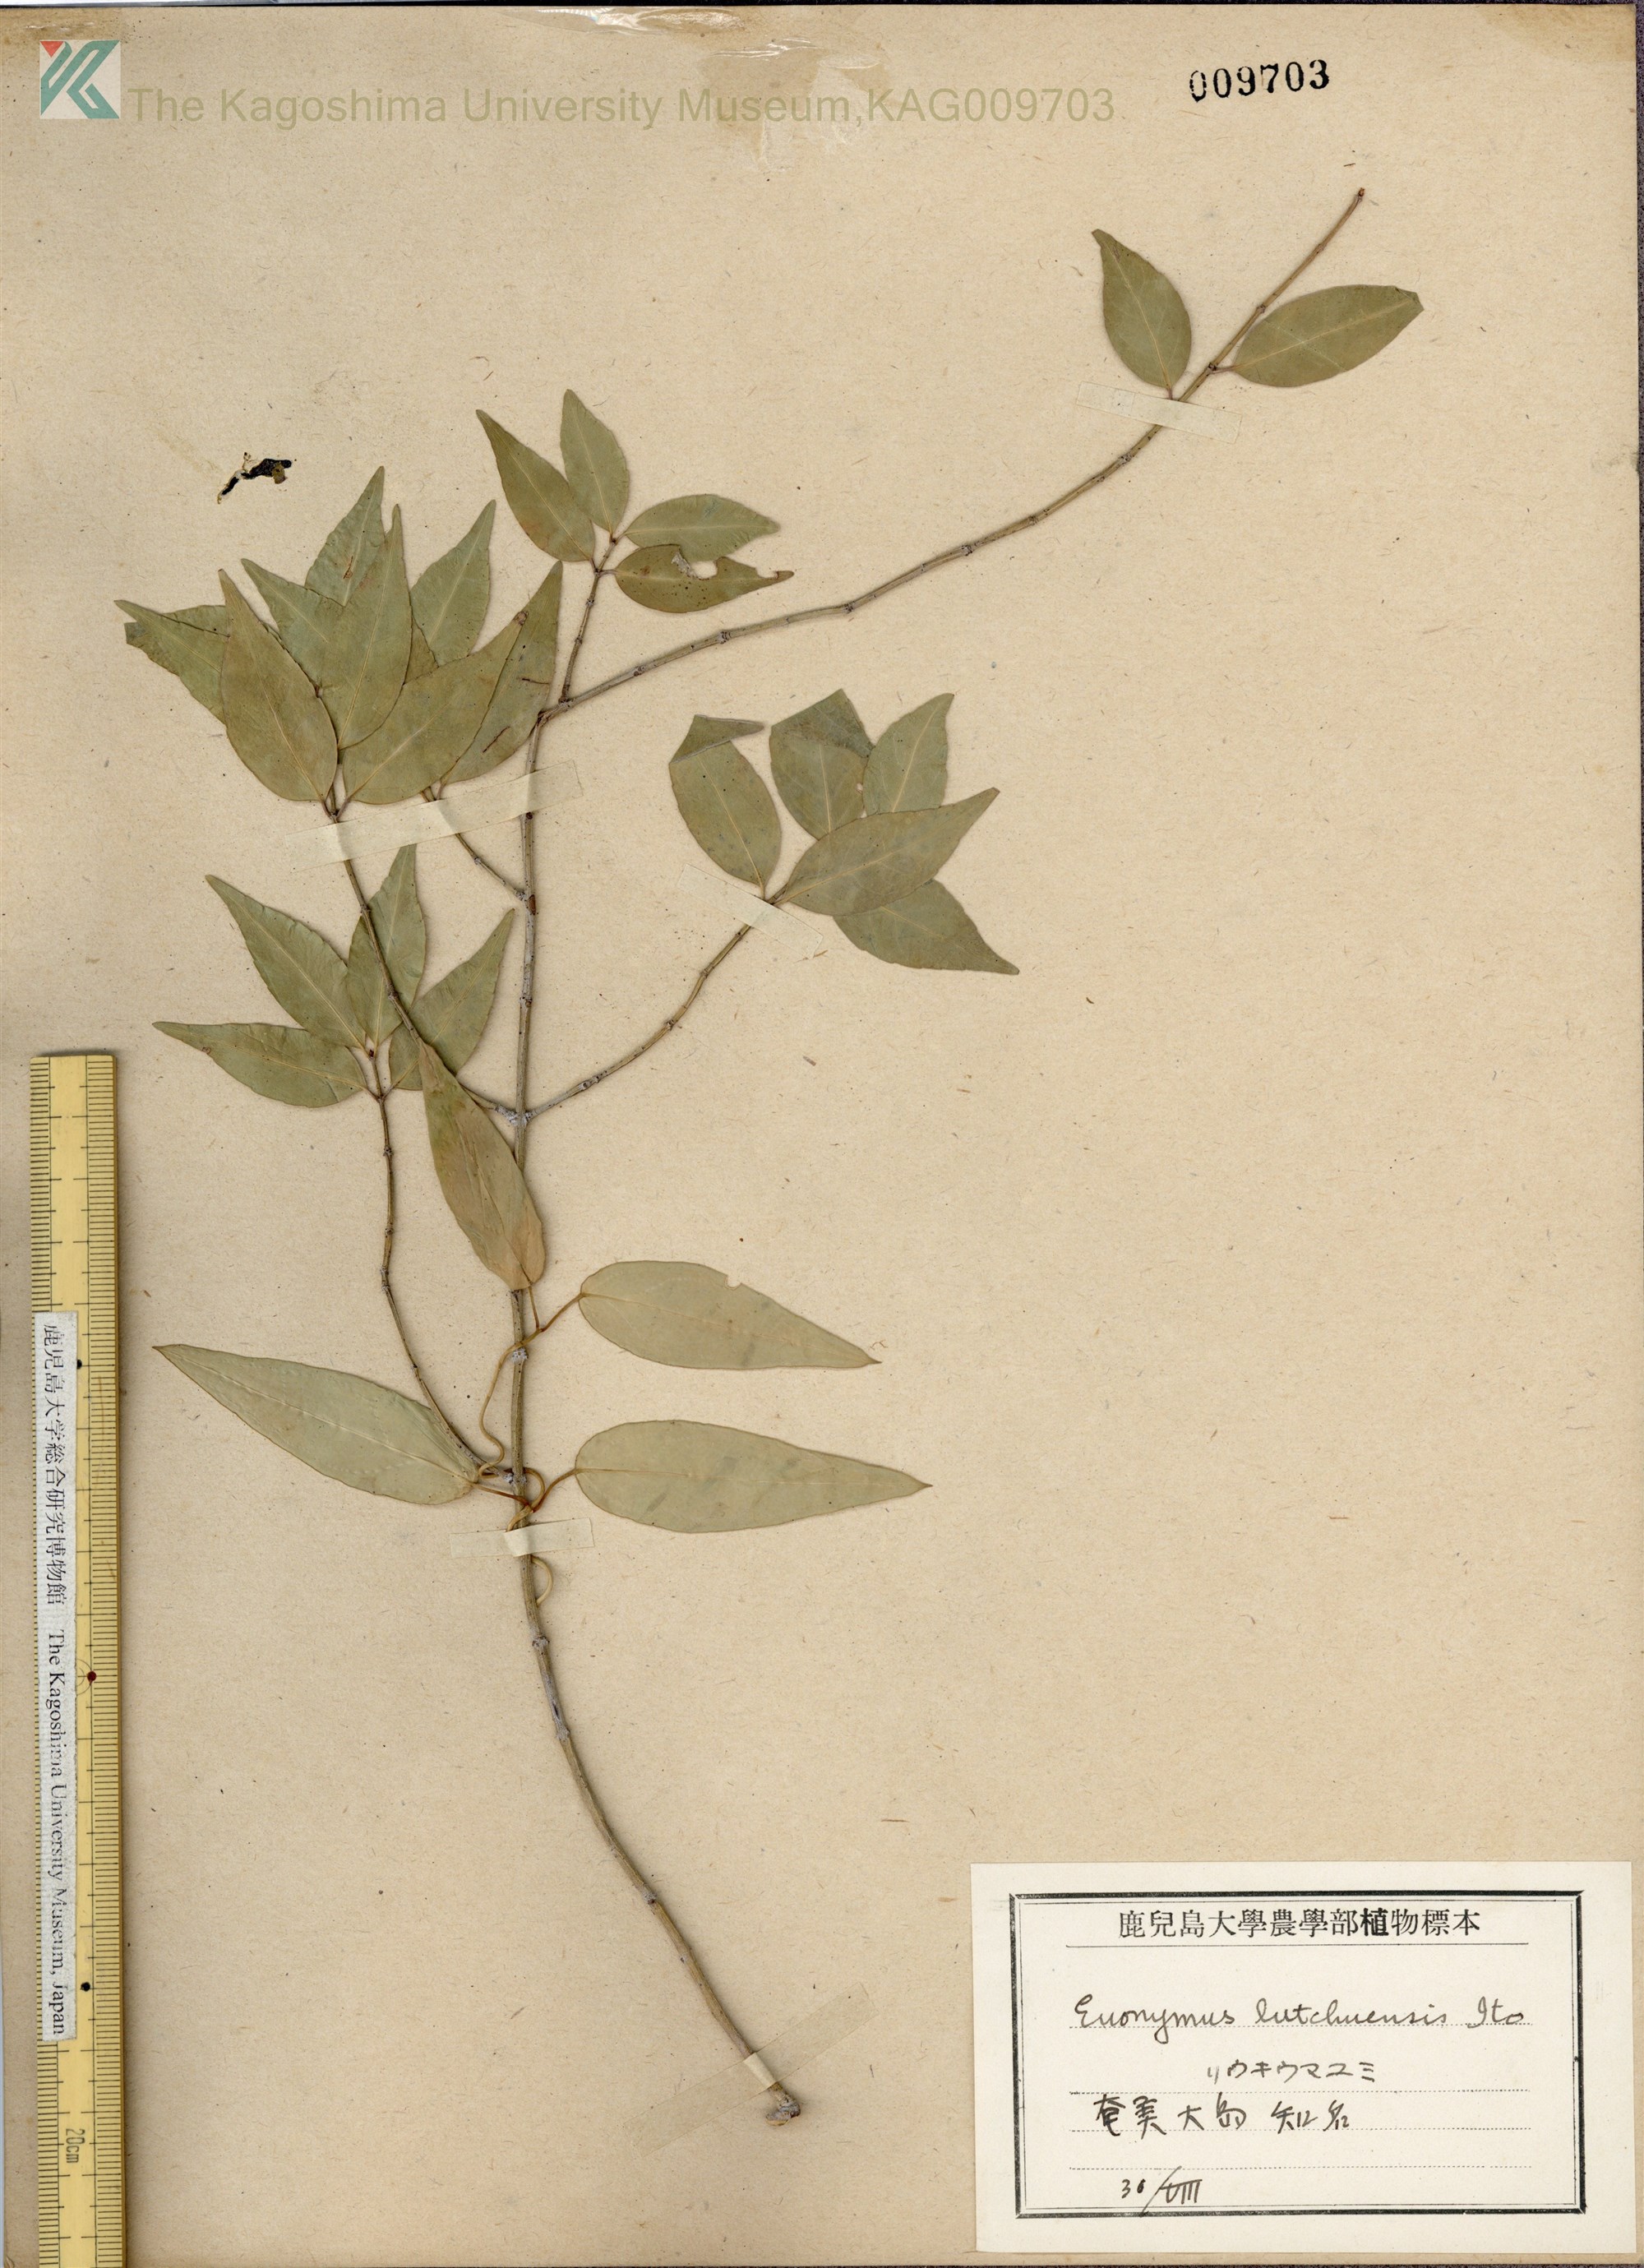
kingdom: Plantae
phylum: Tracheophyta
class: Magnoliopsida
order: Celastrales
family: Celastraceae
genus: Euonymus
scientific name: Euonymus lutchuensis
